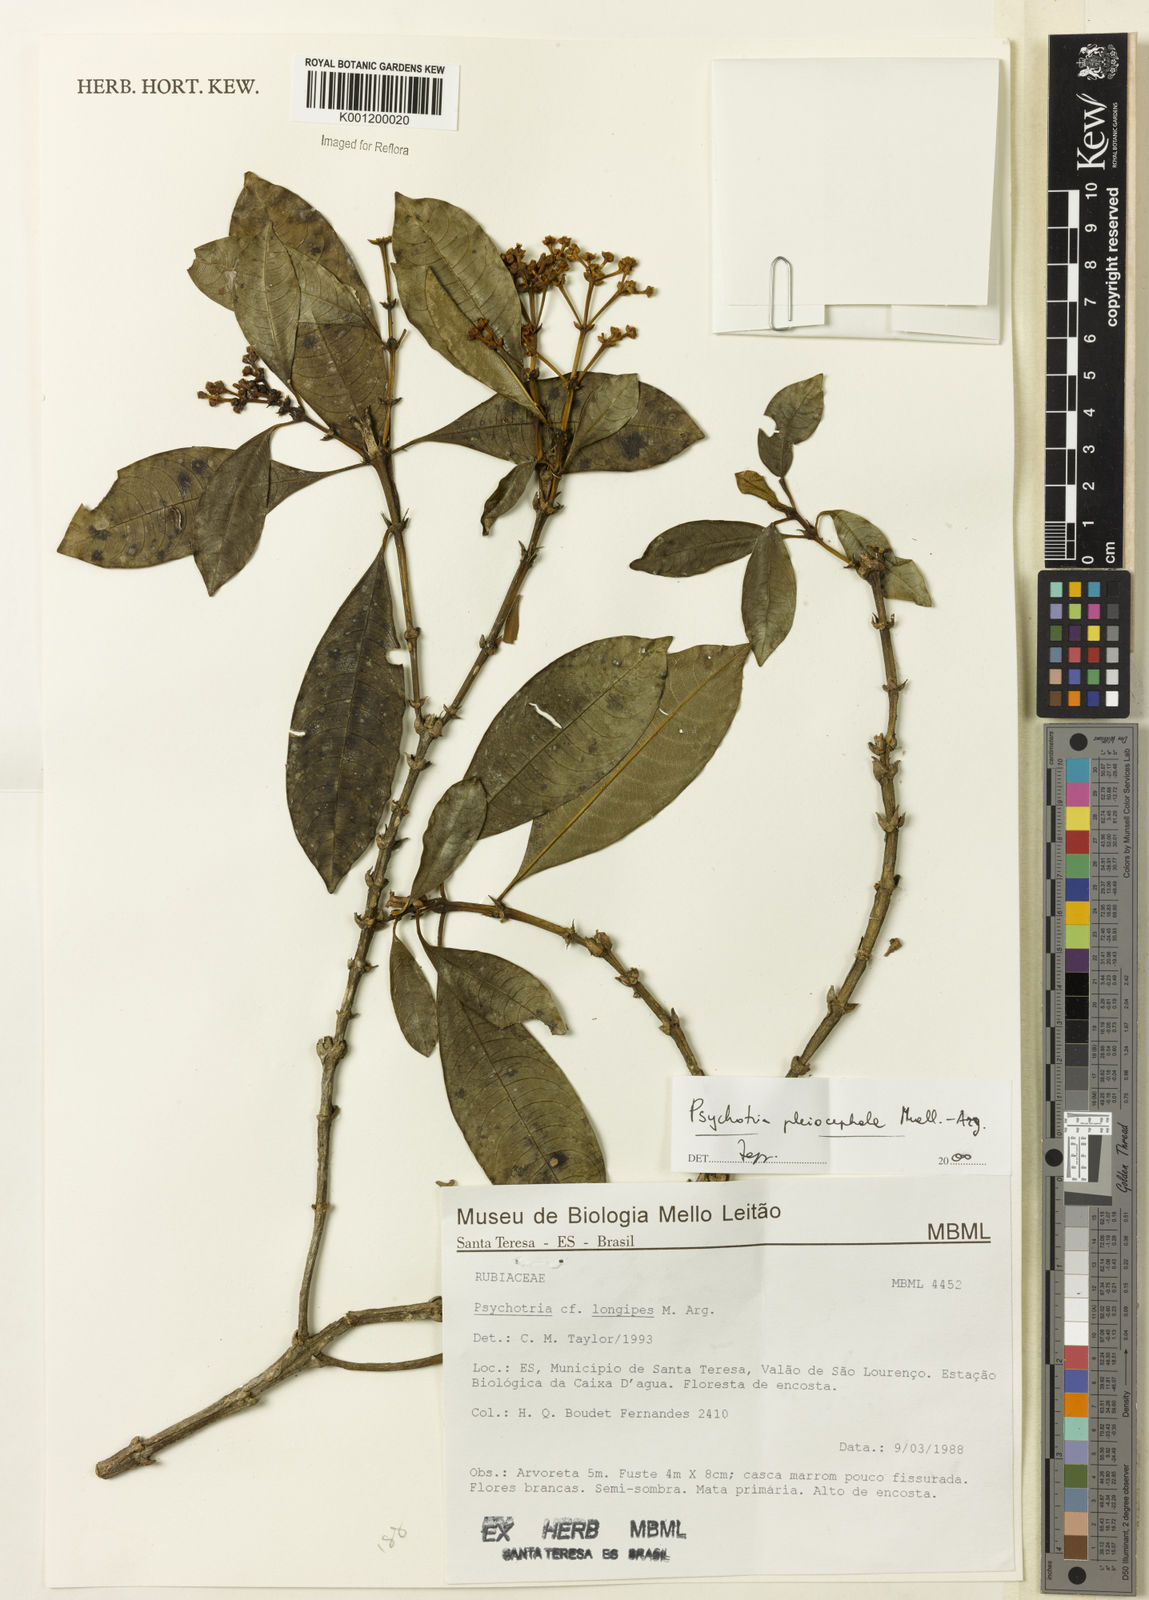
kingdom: Plantae
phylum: Tracheophyta
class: Magnoliopsida
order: Gentianales
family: Rubiaceae
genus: Psychotria
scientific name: Psychotria
